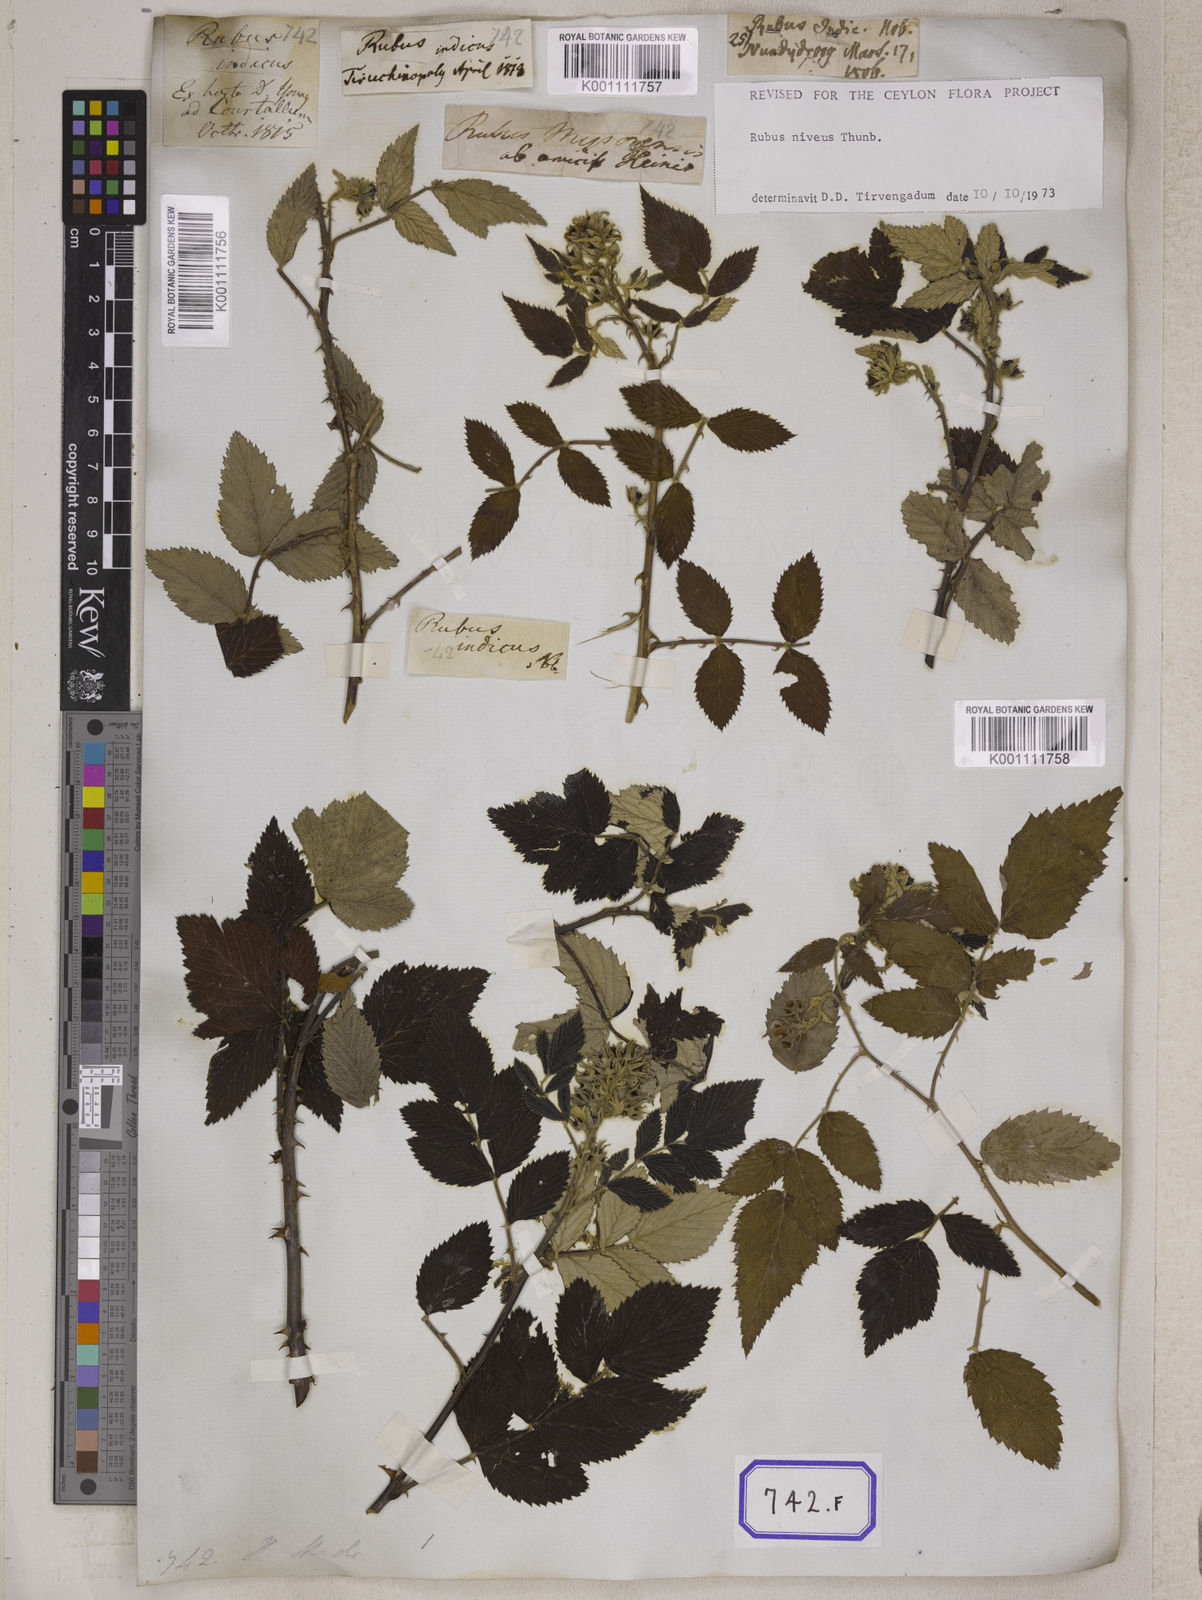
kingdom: Plantae
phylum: Tracheophyta
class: Magnoliopsida
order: Rosales
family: Rosaceae
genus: Rubus
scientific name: Rubus niveus
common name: Snowpeaks raspberry
